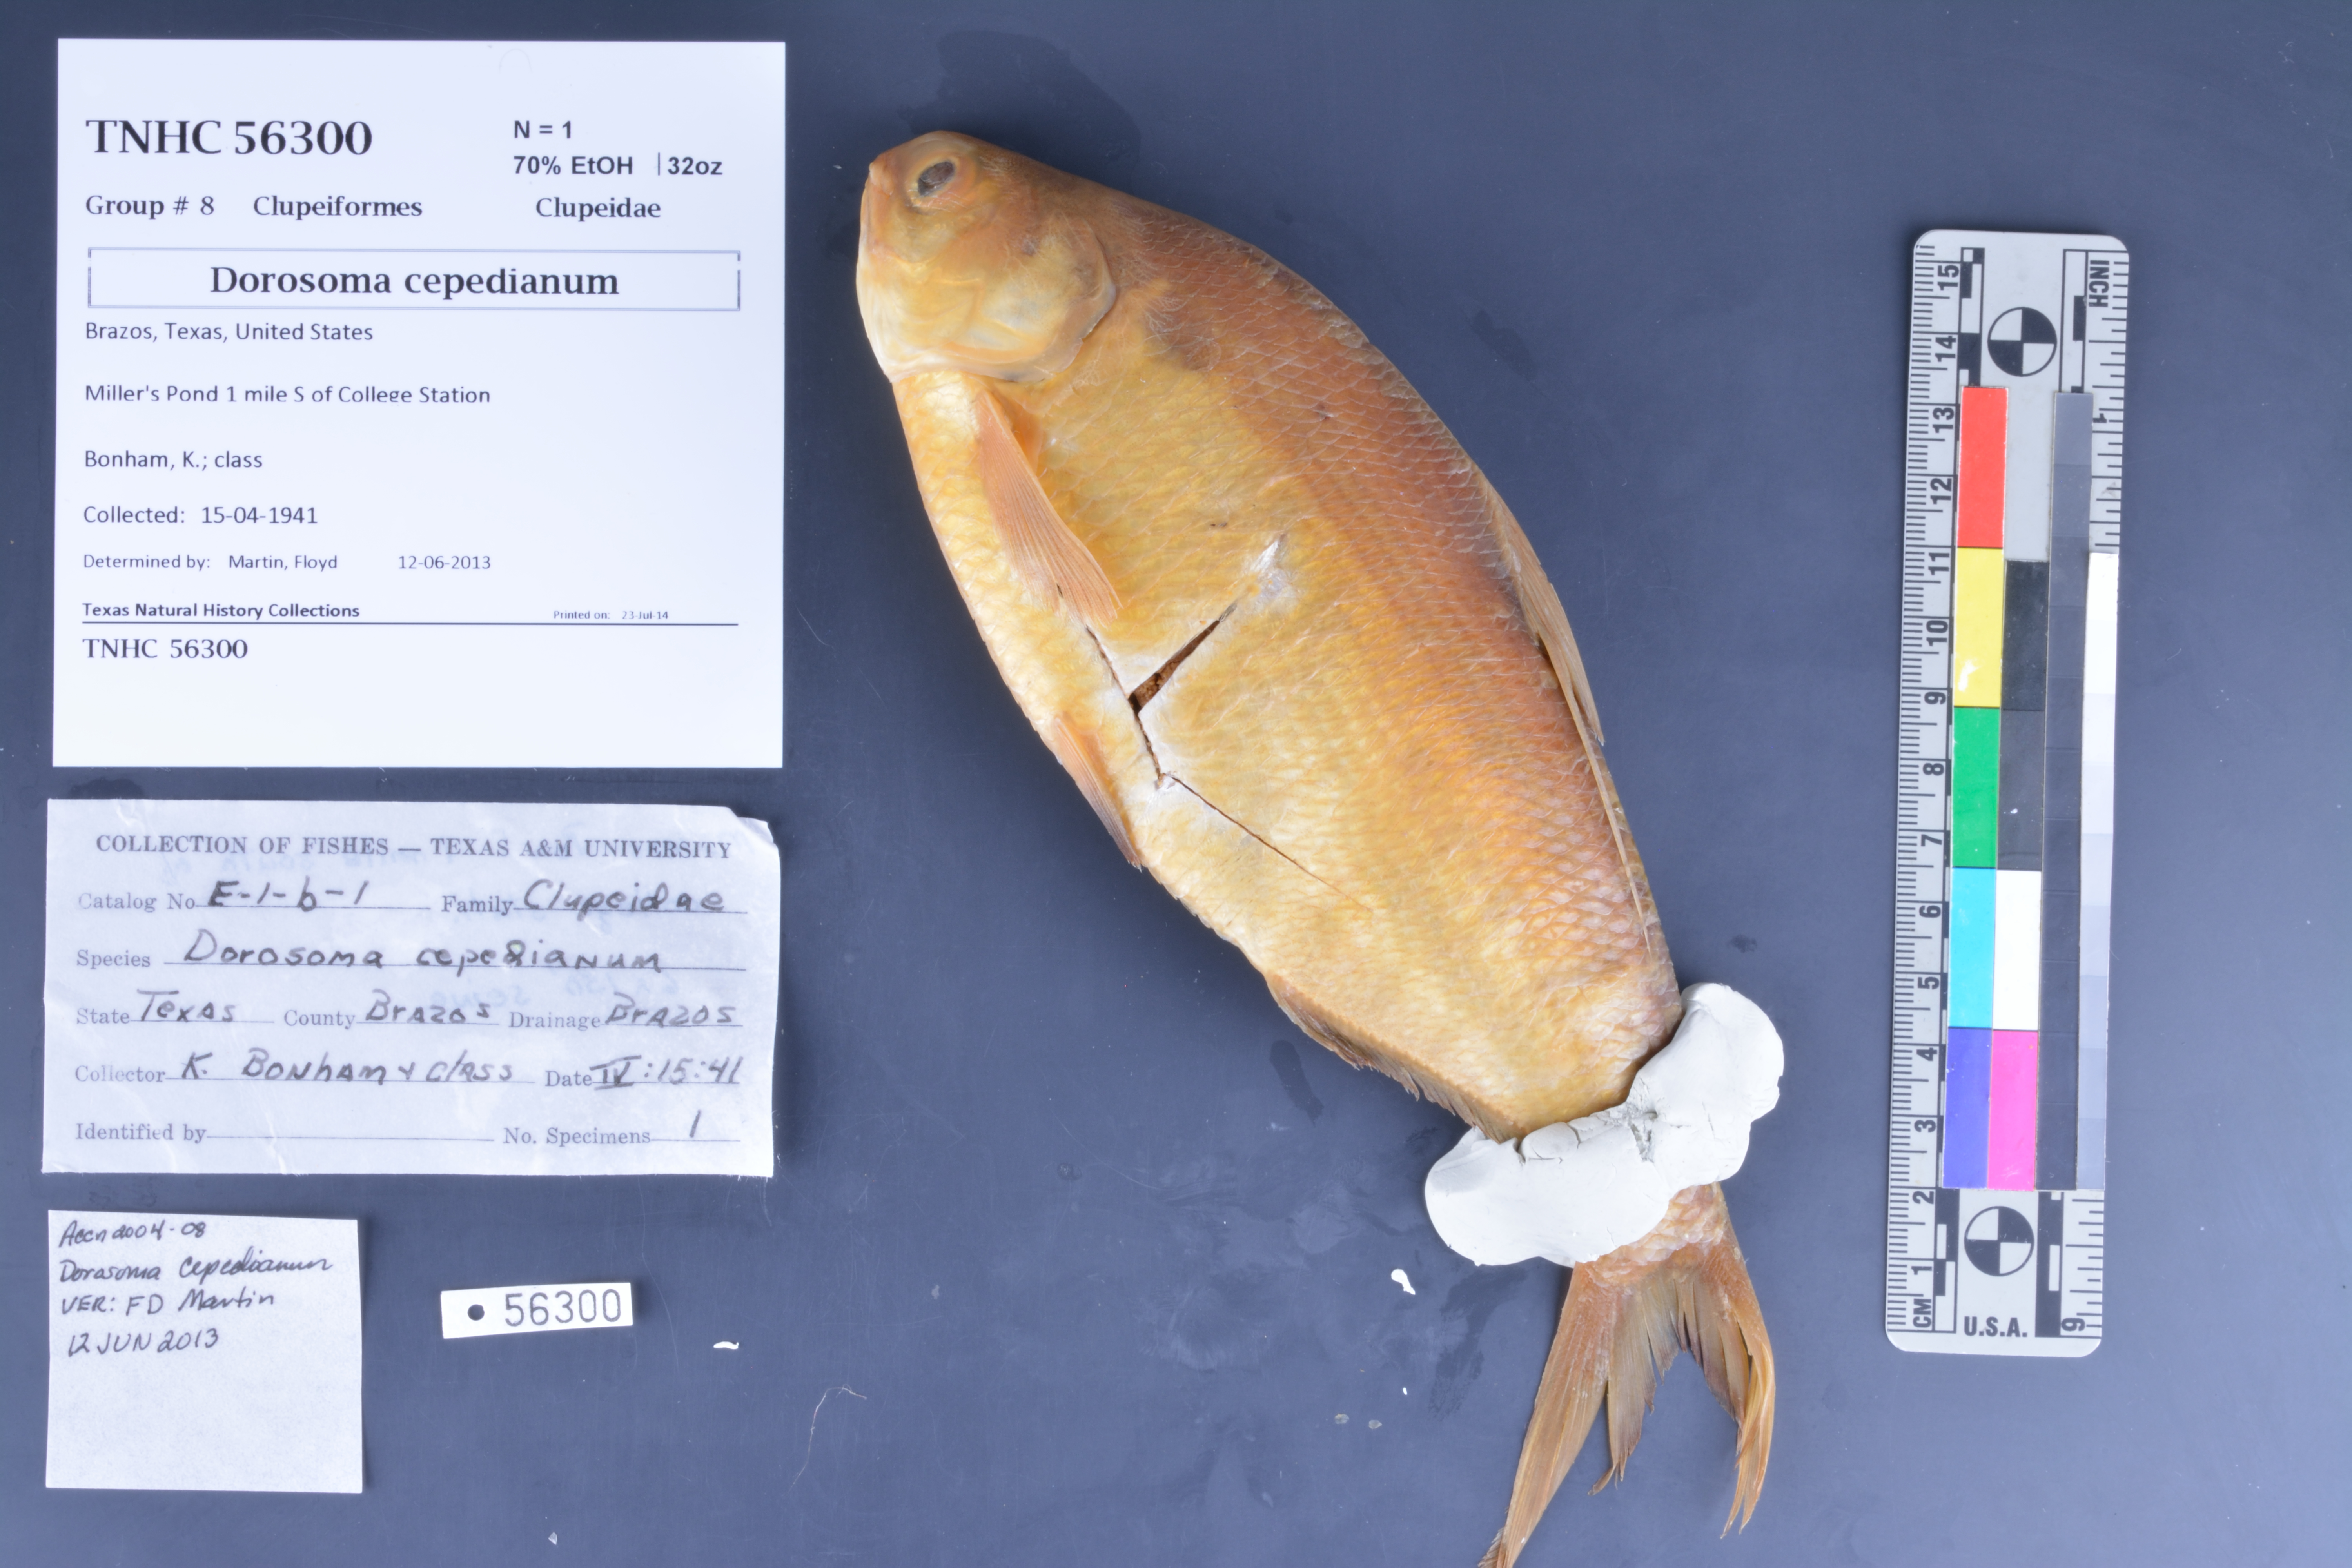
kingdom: Animalia
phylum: Chordata
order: Clupeiformes
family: Clupeidae
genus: Dorosoma
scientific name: Dorosoma cepedianum
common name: Gizzard shad
